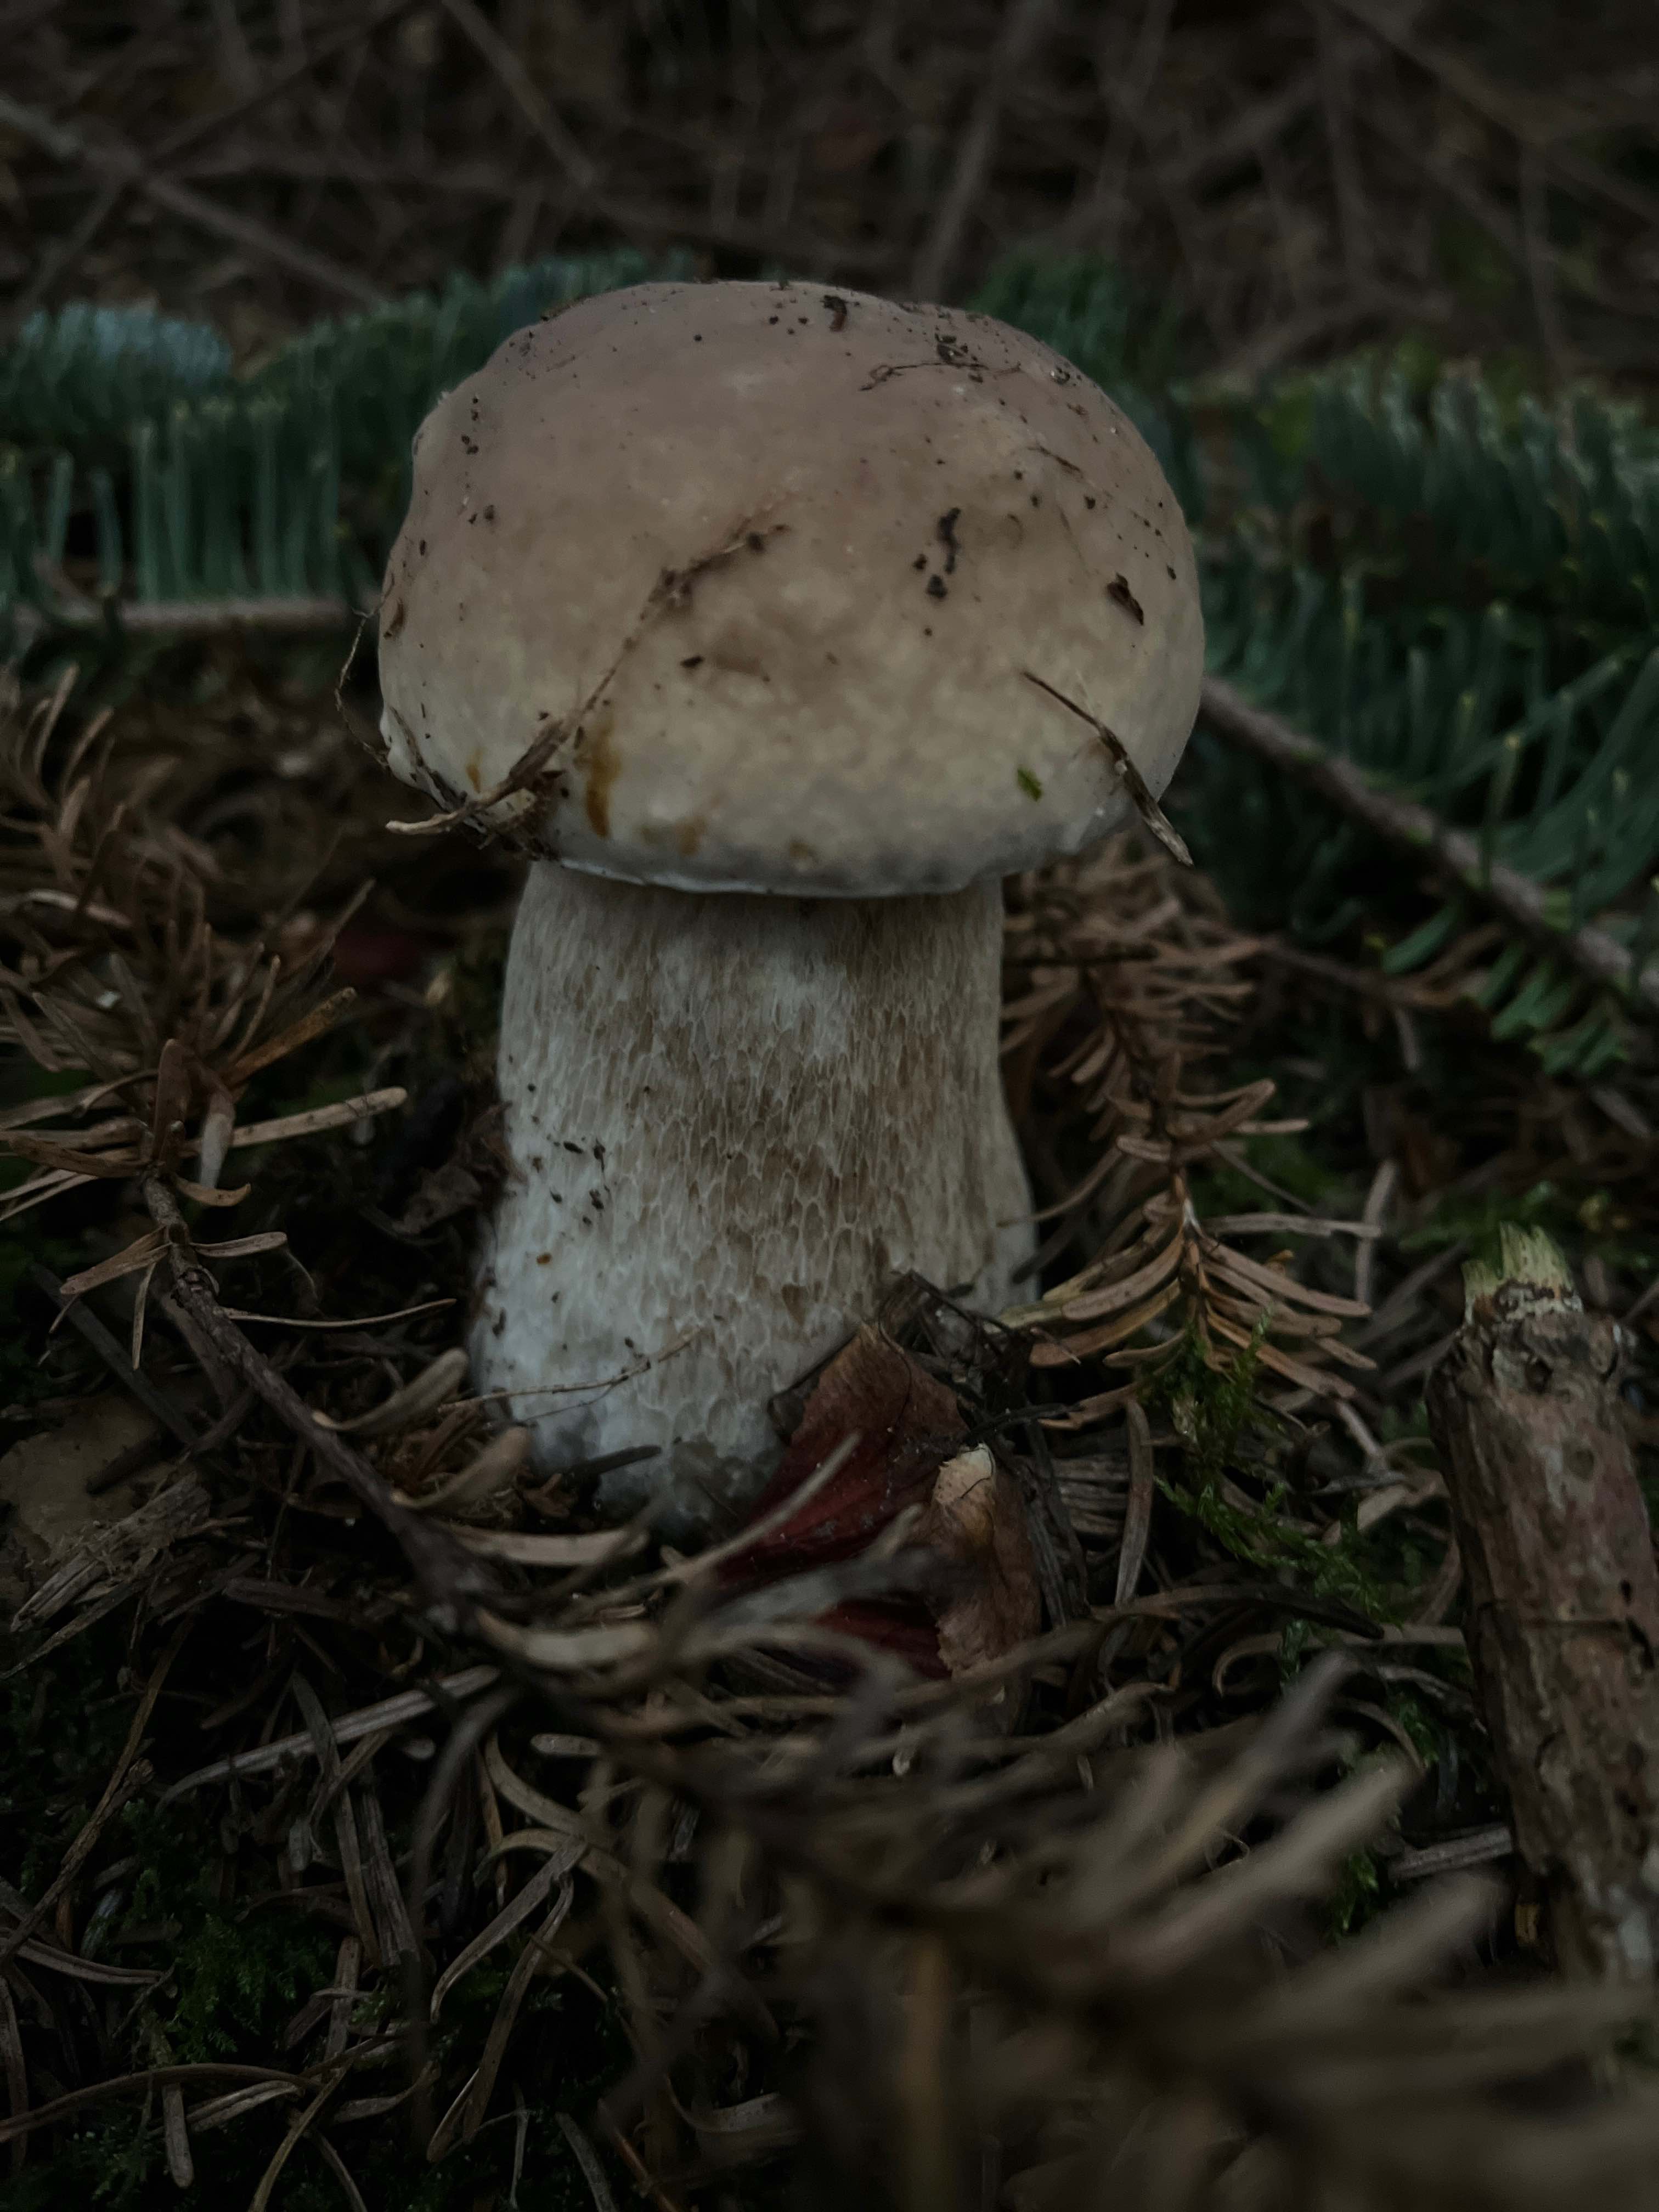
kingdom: Fungi
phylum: Basidiomycota
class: Agaricomycetes
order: Boletales
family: Boletaceae
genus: Boletus
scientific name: Boletus edulis
